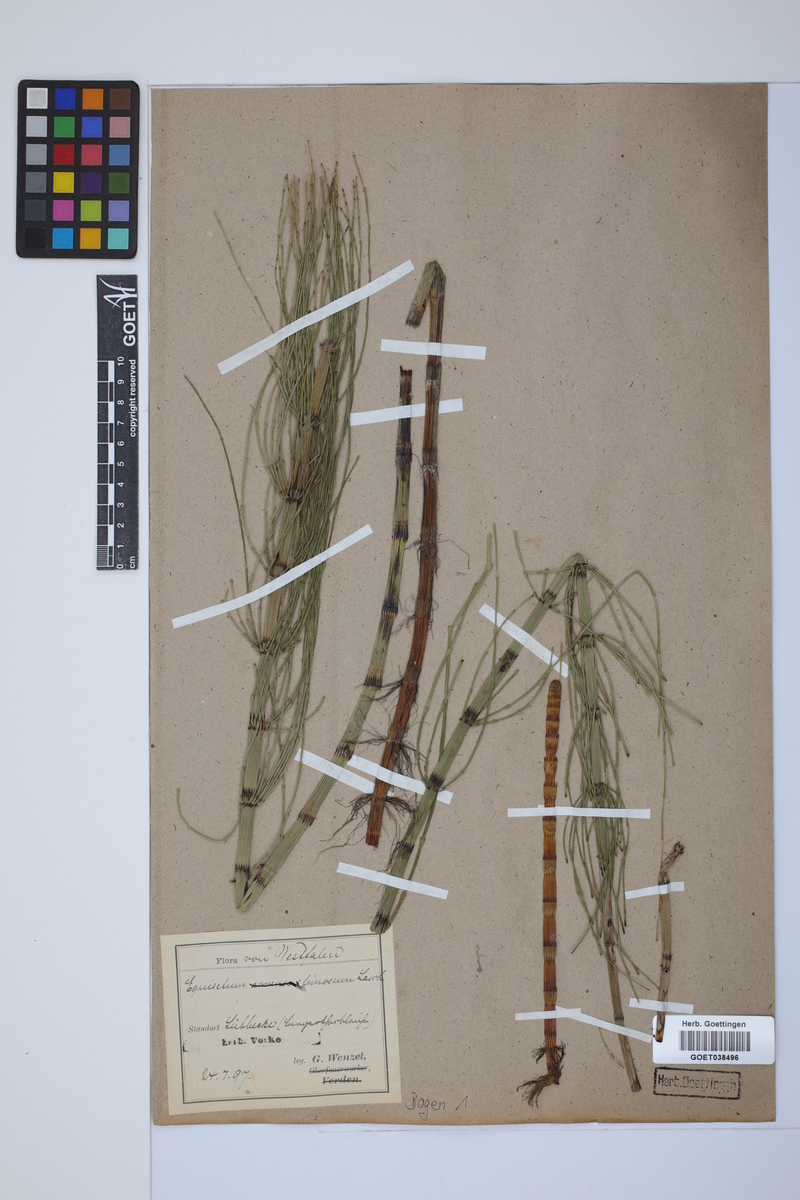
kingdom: Plantae
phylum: Tracheophyta
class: Polypodiopsida
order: Equisetales
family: Equisetaceae
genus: Equisetum
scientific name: Equisetum fluviatile
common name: Water horsetail
